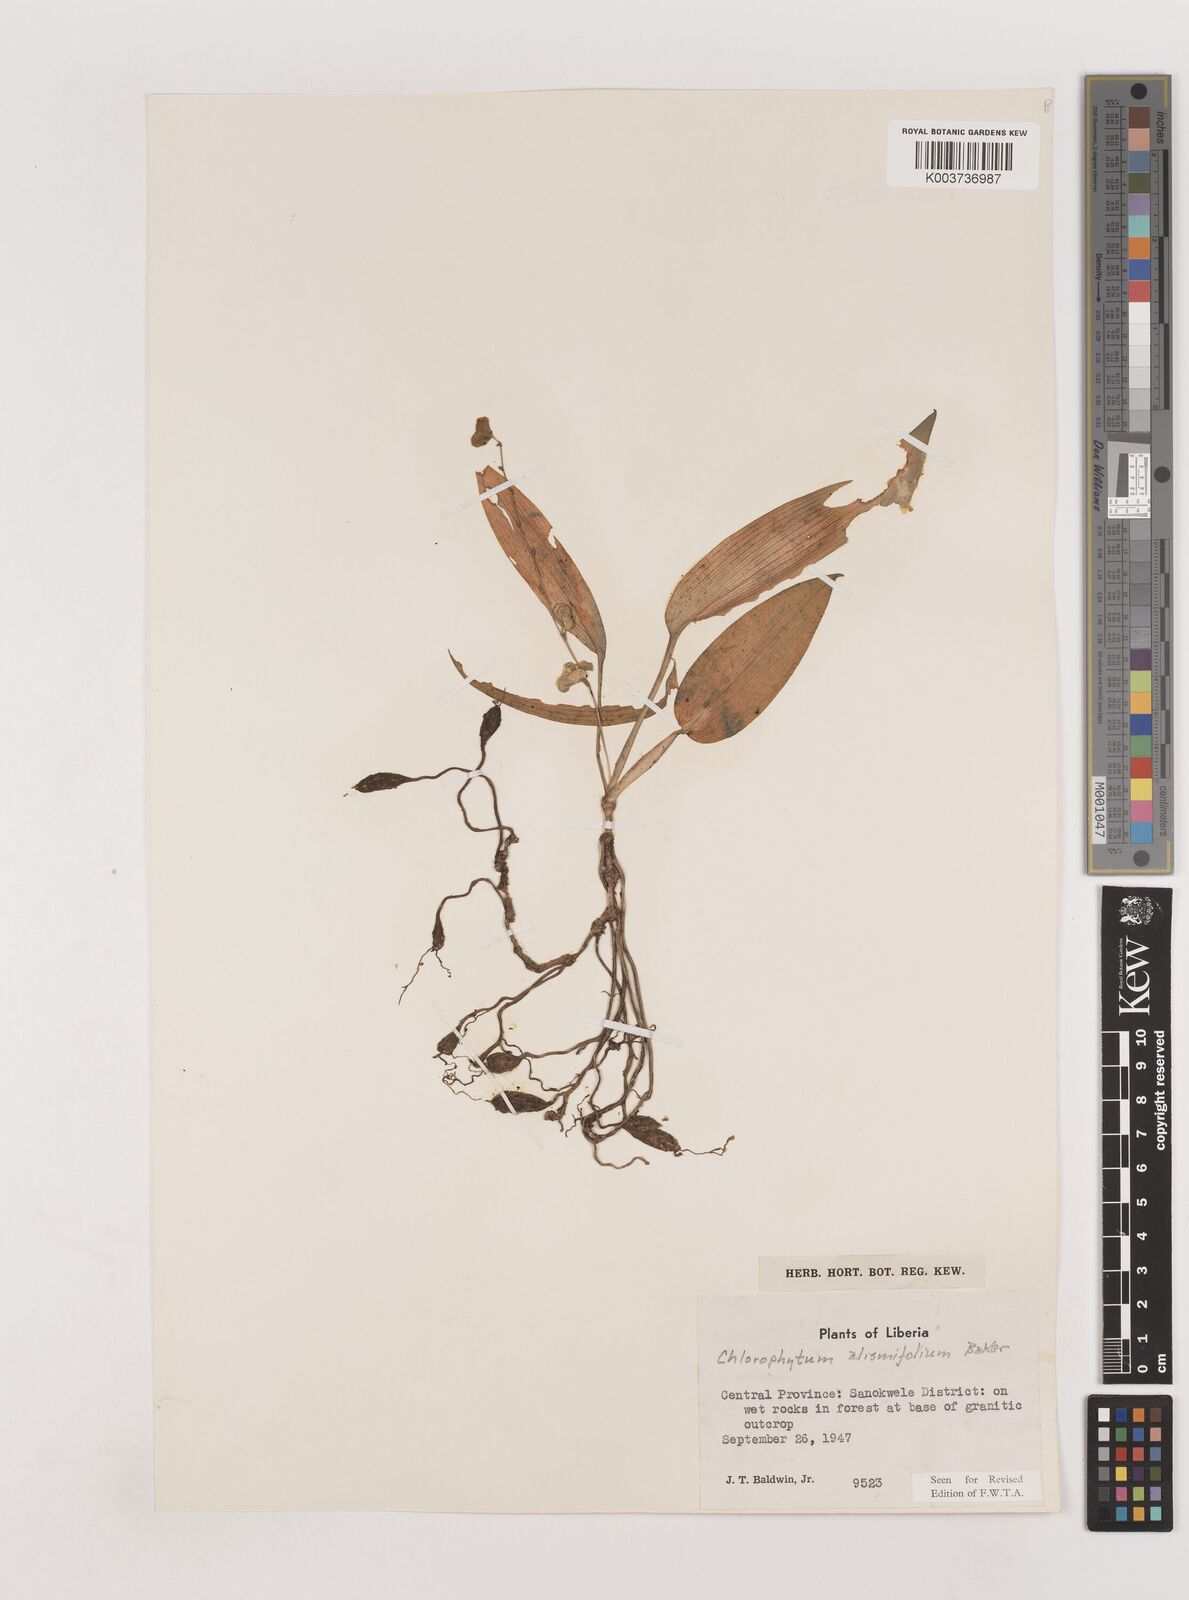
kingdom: Plantae
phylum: Tracheophyta
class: Liliopsida
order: Asparagales
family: Asparagaceae
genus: Chlorophytum
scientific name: Chlorophytum alismifolium
